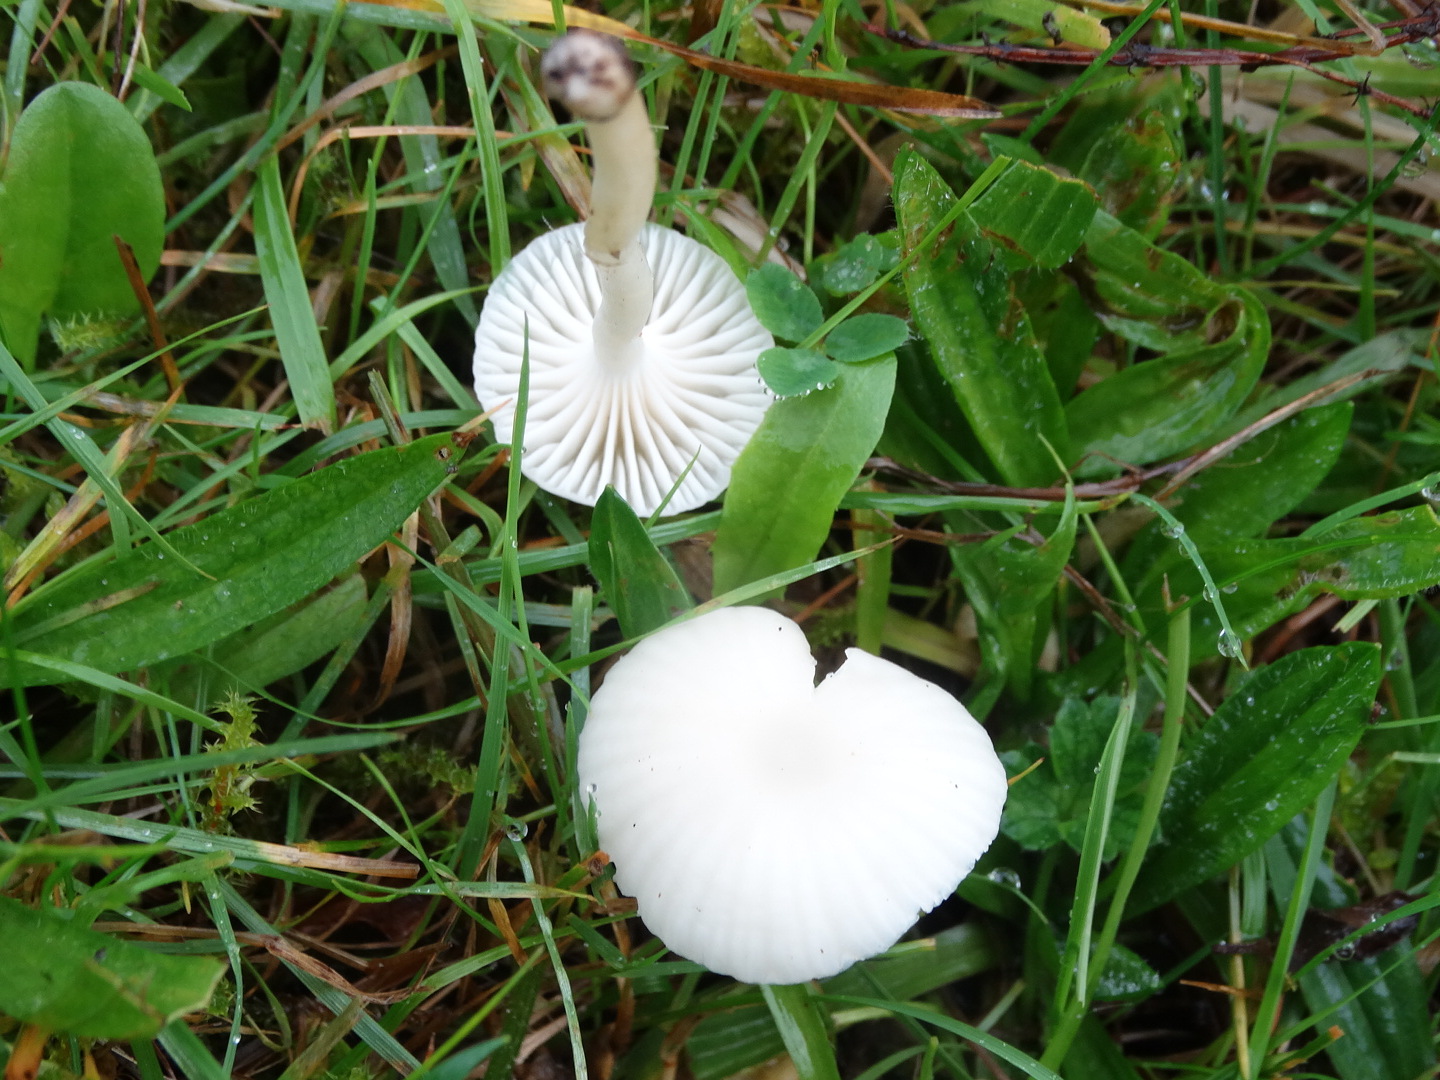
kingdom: Fungi
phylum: Basidiomycota
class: Agaricomycetes
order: Agaricales
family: Hygrophoraceae
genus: Cuphophyllus
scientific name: Cuphophyllus virgineus
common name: snehvid vokshat
